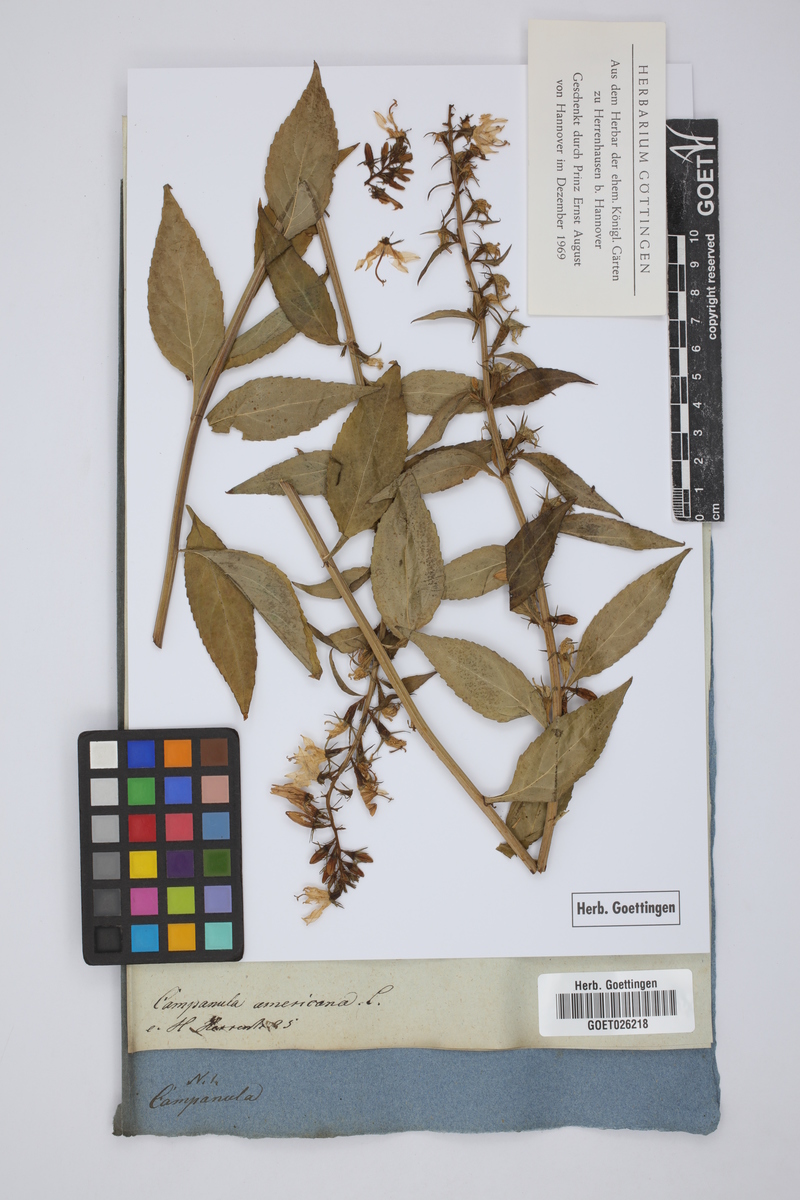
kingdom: Plantae
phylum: Tracheophyta
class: Magnoliopsida
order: Asterales
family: Campanulaceae
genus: Campanulastrum
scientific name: Campanulastrum americanum
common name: American bellflower
